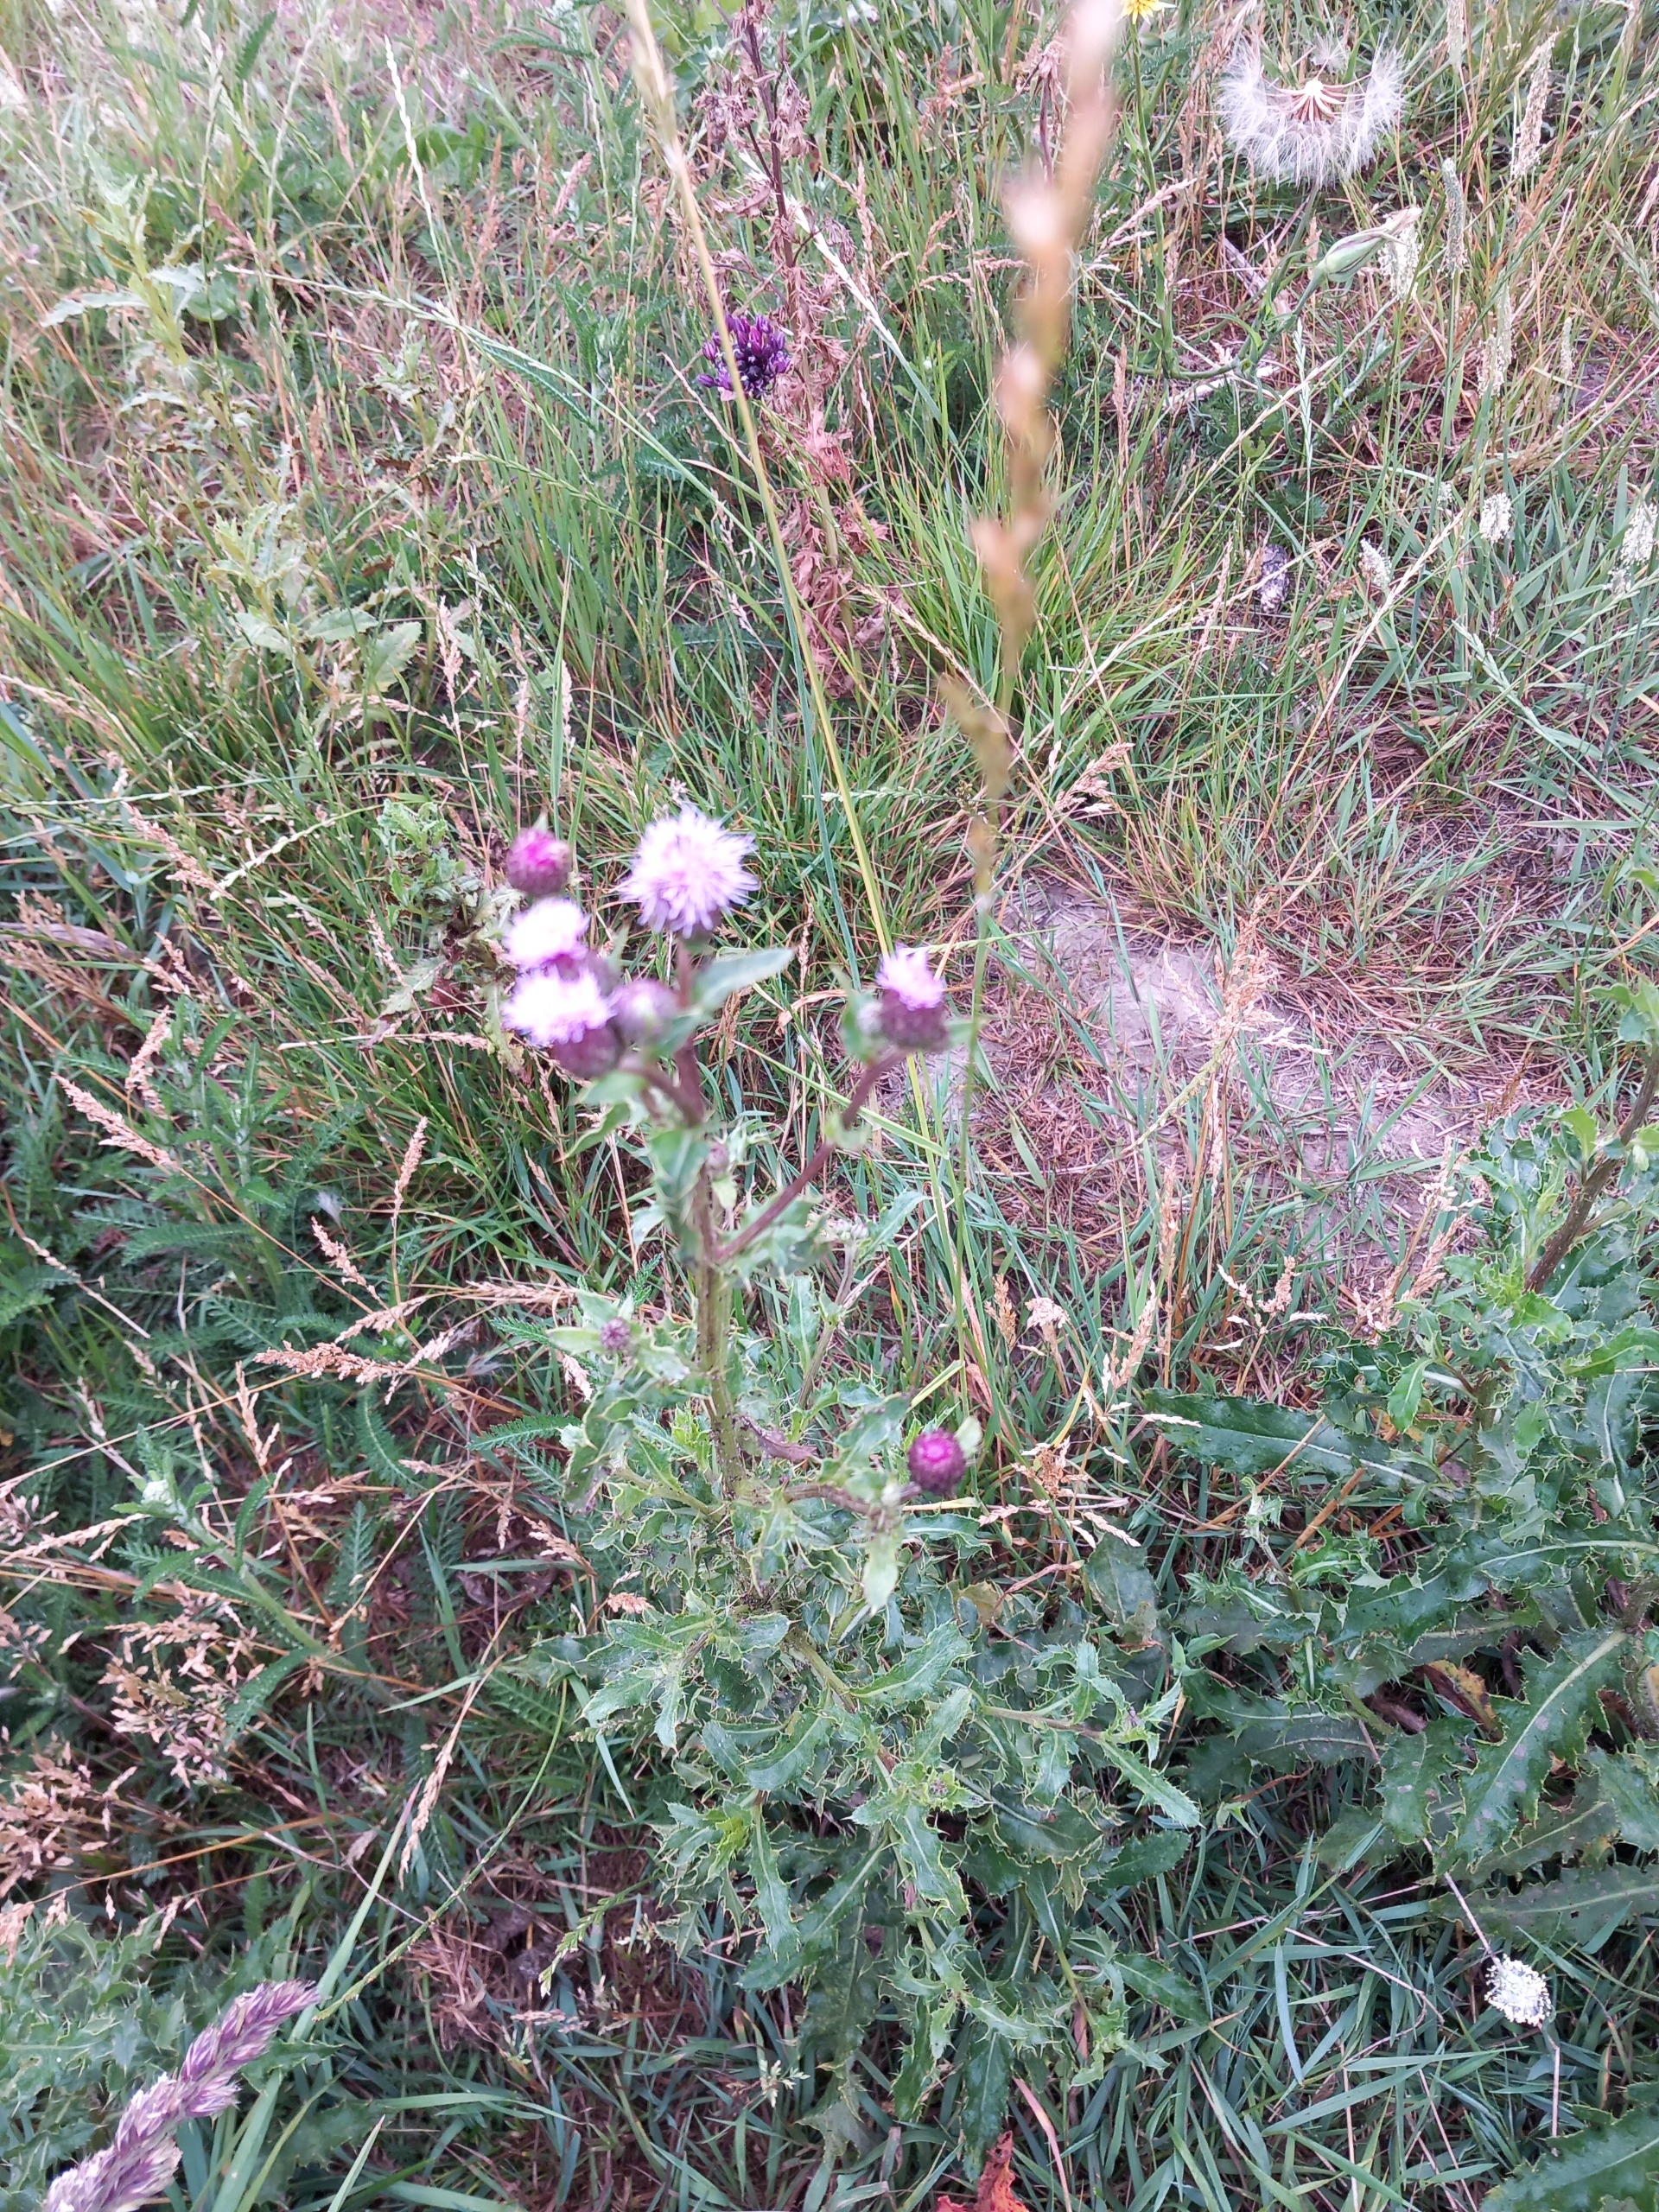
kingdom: Plantae
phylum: Tracheophyta
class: Magnoliopsida
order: Asterales
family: Asteraceae
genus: Cirsium
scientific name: Cirsium arvense
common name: Ager-tidsel
